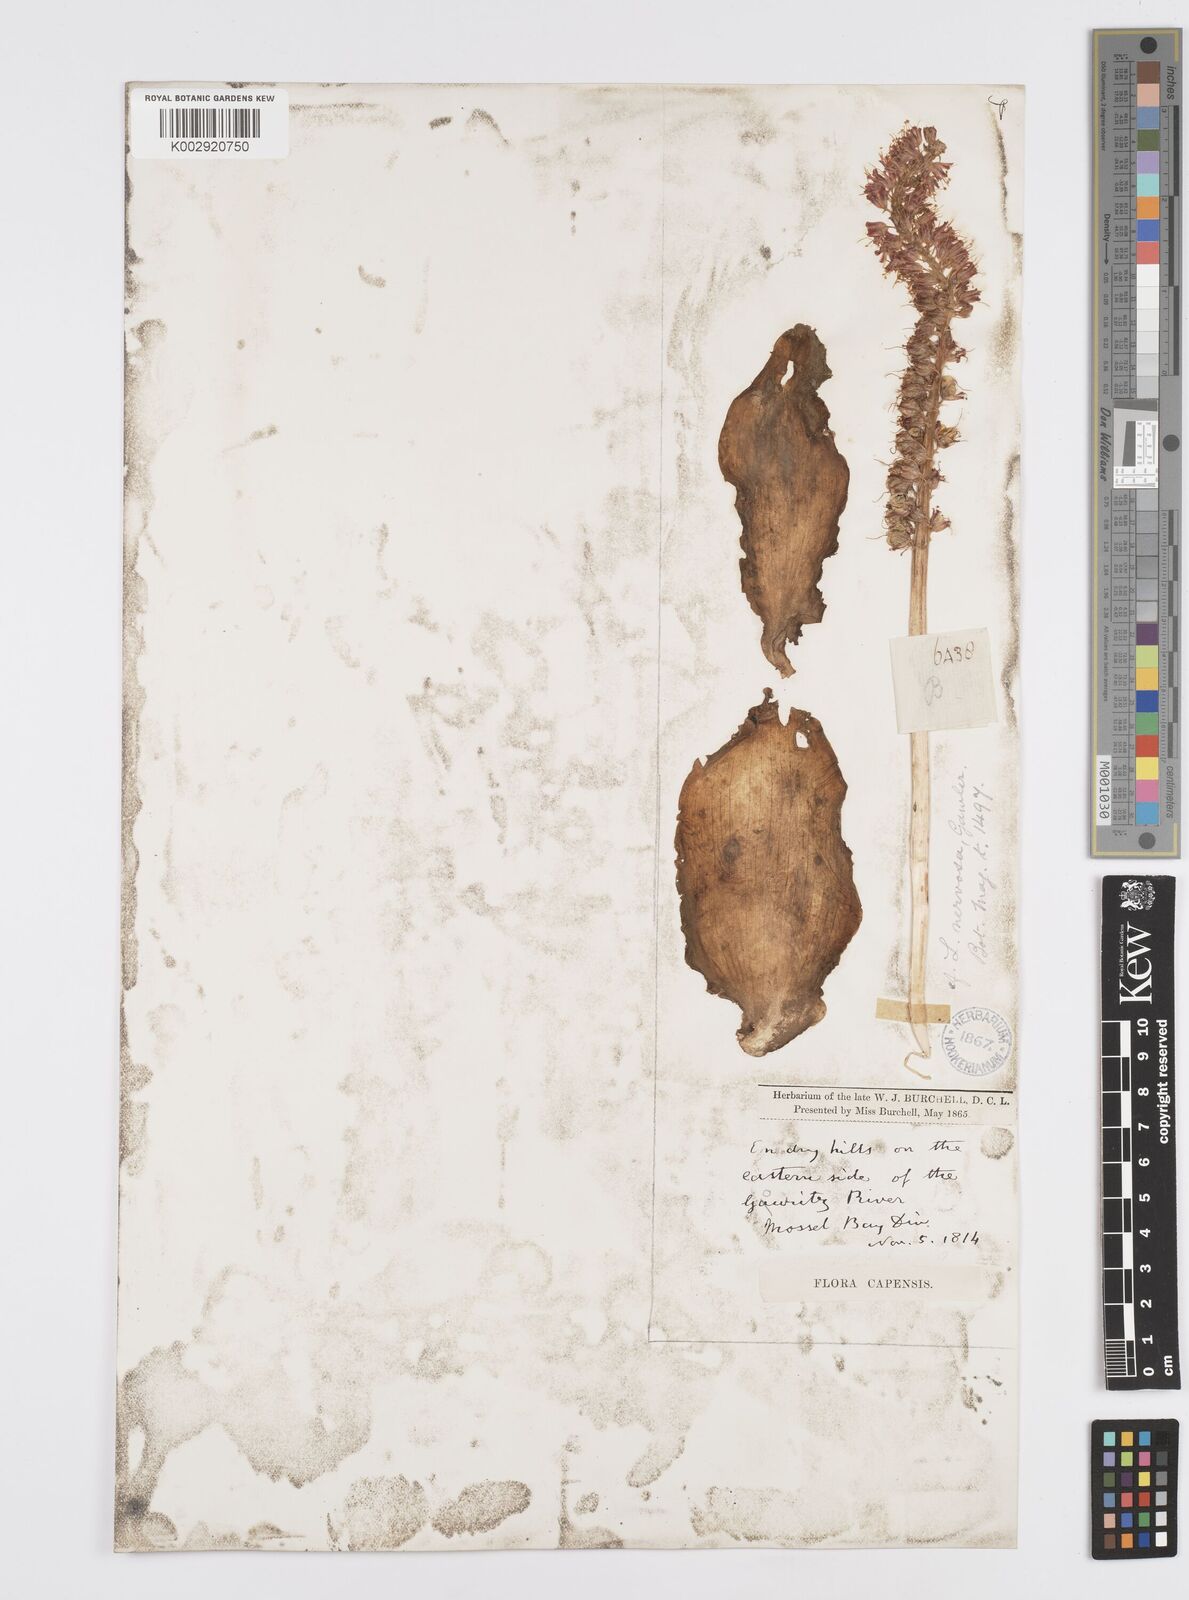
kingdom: Plantae
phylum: Tracheophyta
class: Liliopsida
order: Asparagales
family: Asparagaceae
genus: Lachenalia
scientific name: Lachenalia nervosa
